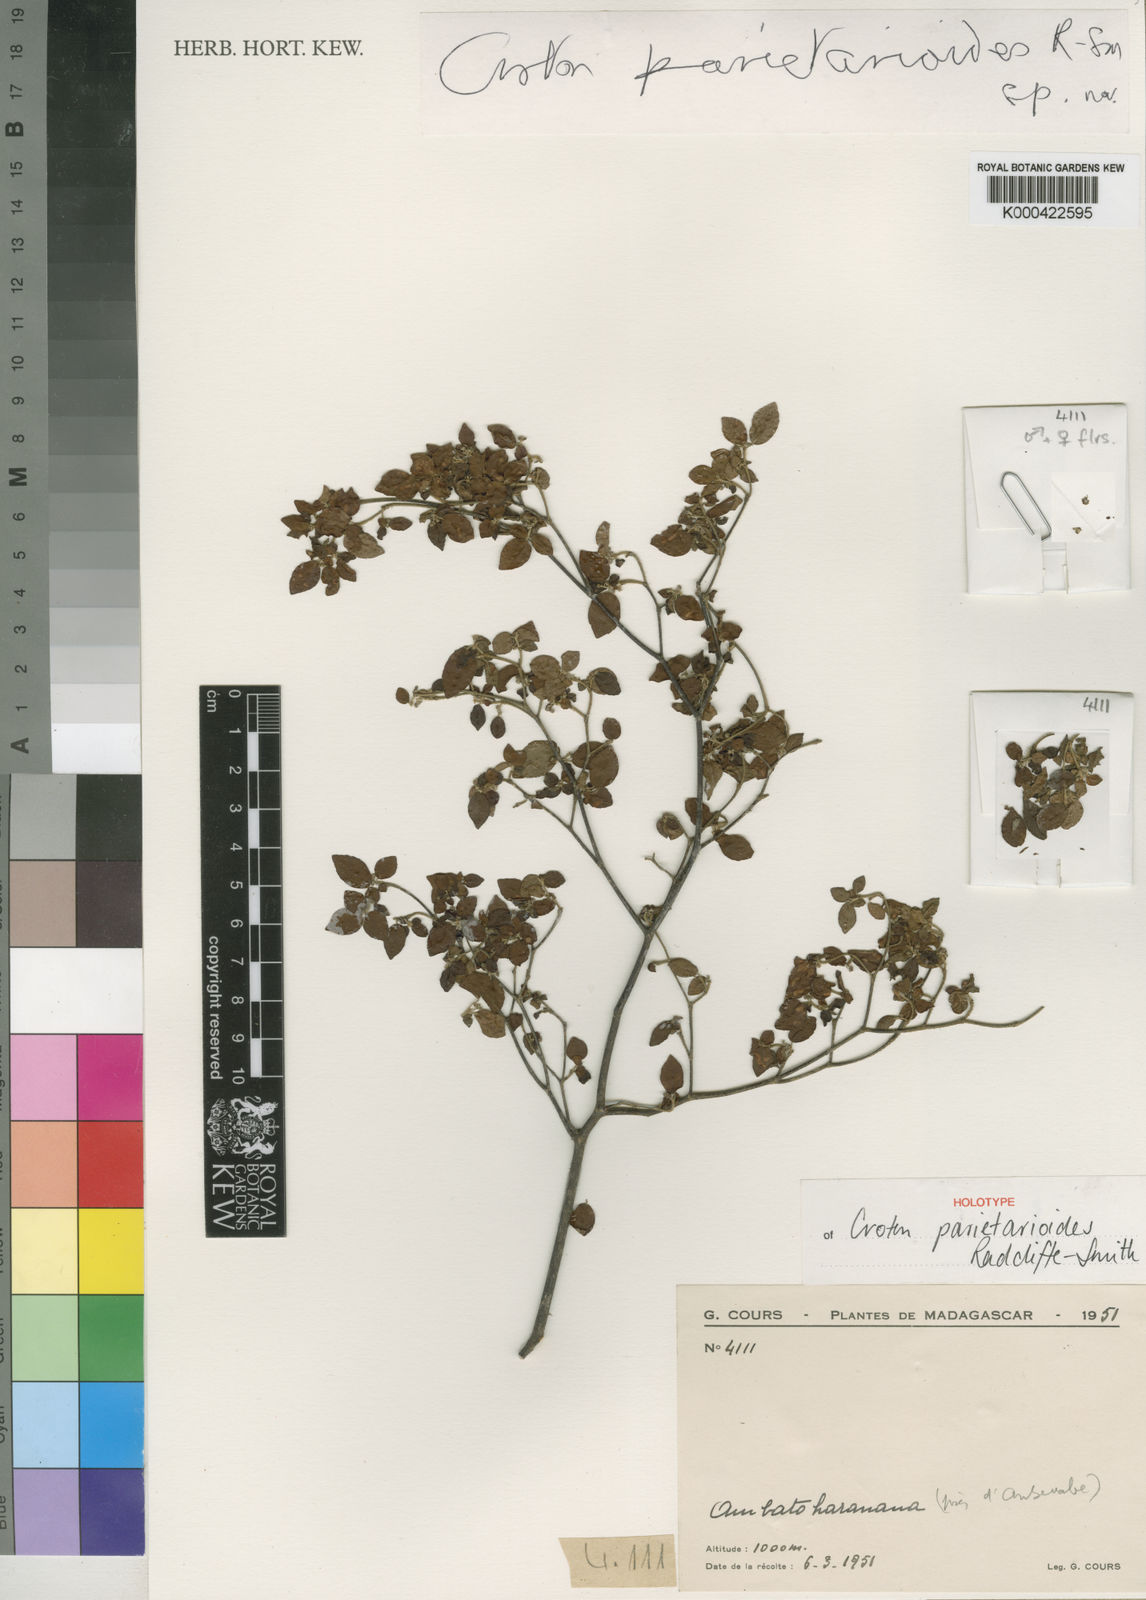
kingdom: Plantae
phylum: Tracheophyta
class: Magnoliopsida
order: Malpighiales
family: Euphorbiaceae
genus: Croton
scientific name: Croton droguetioides
